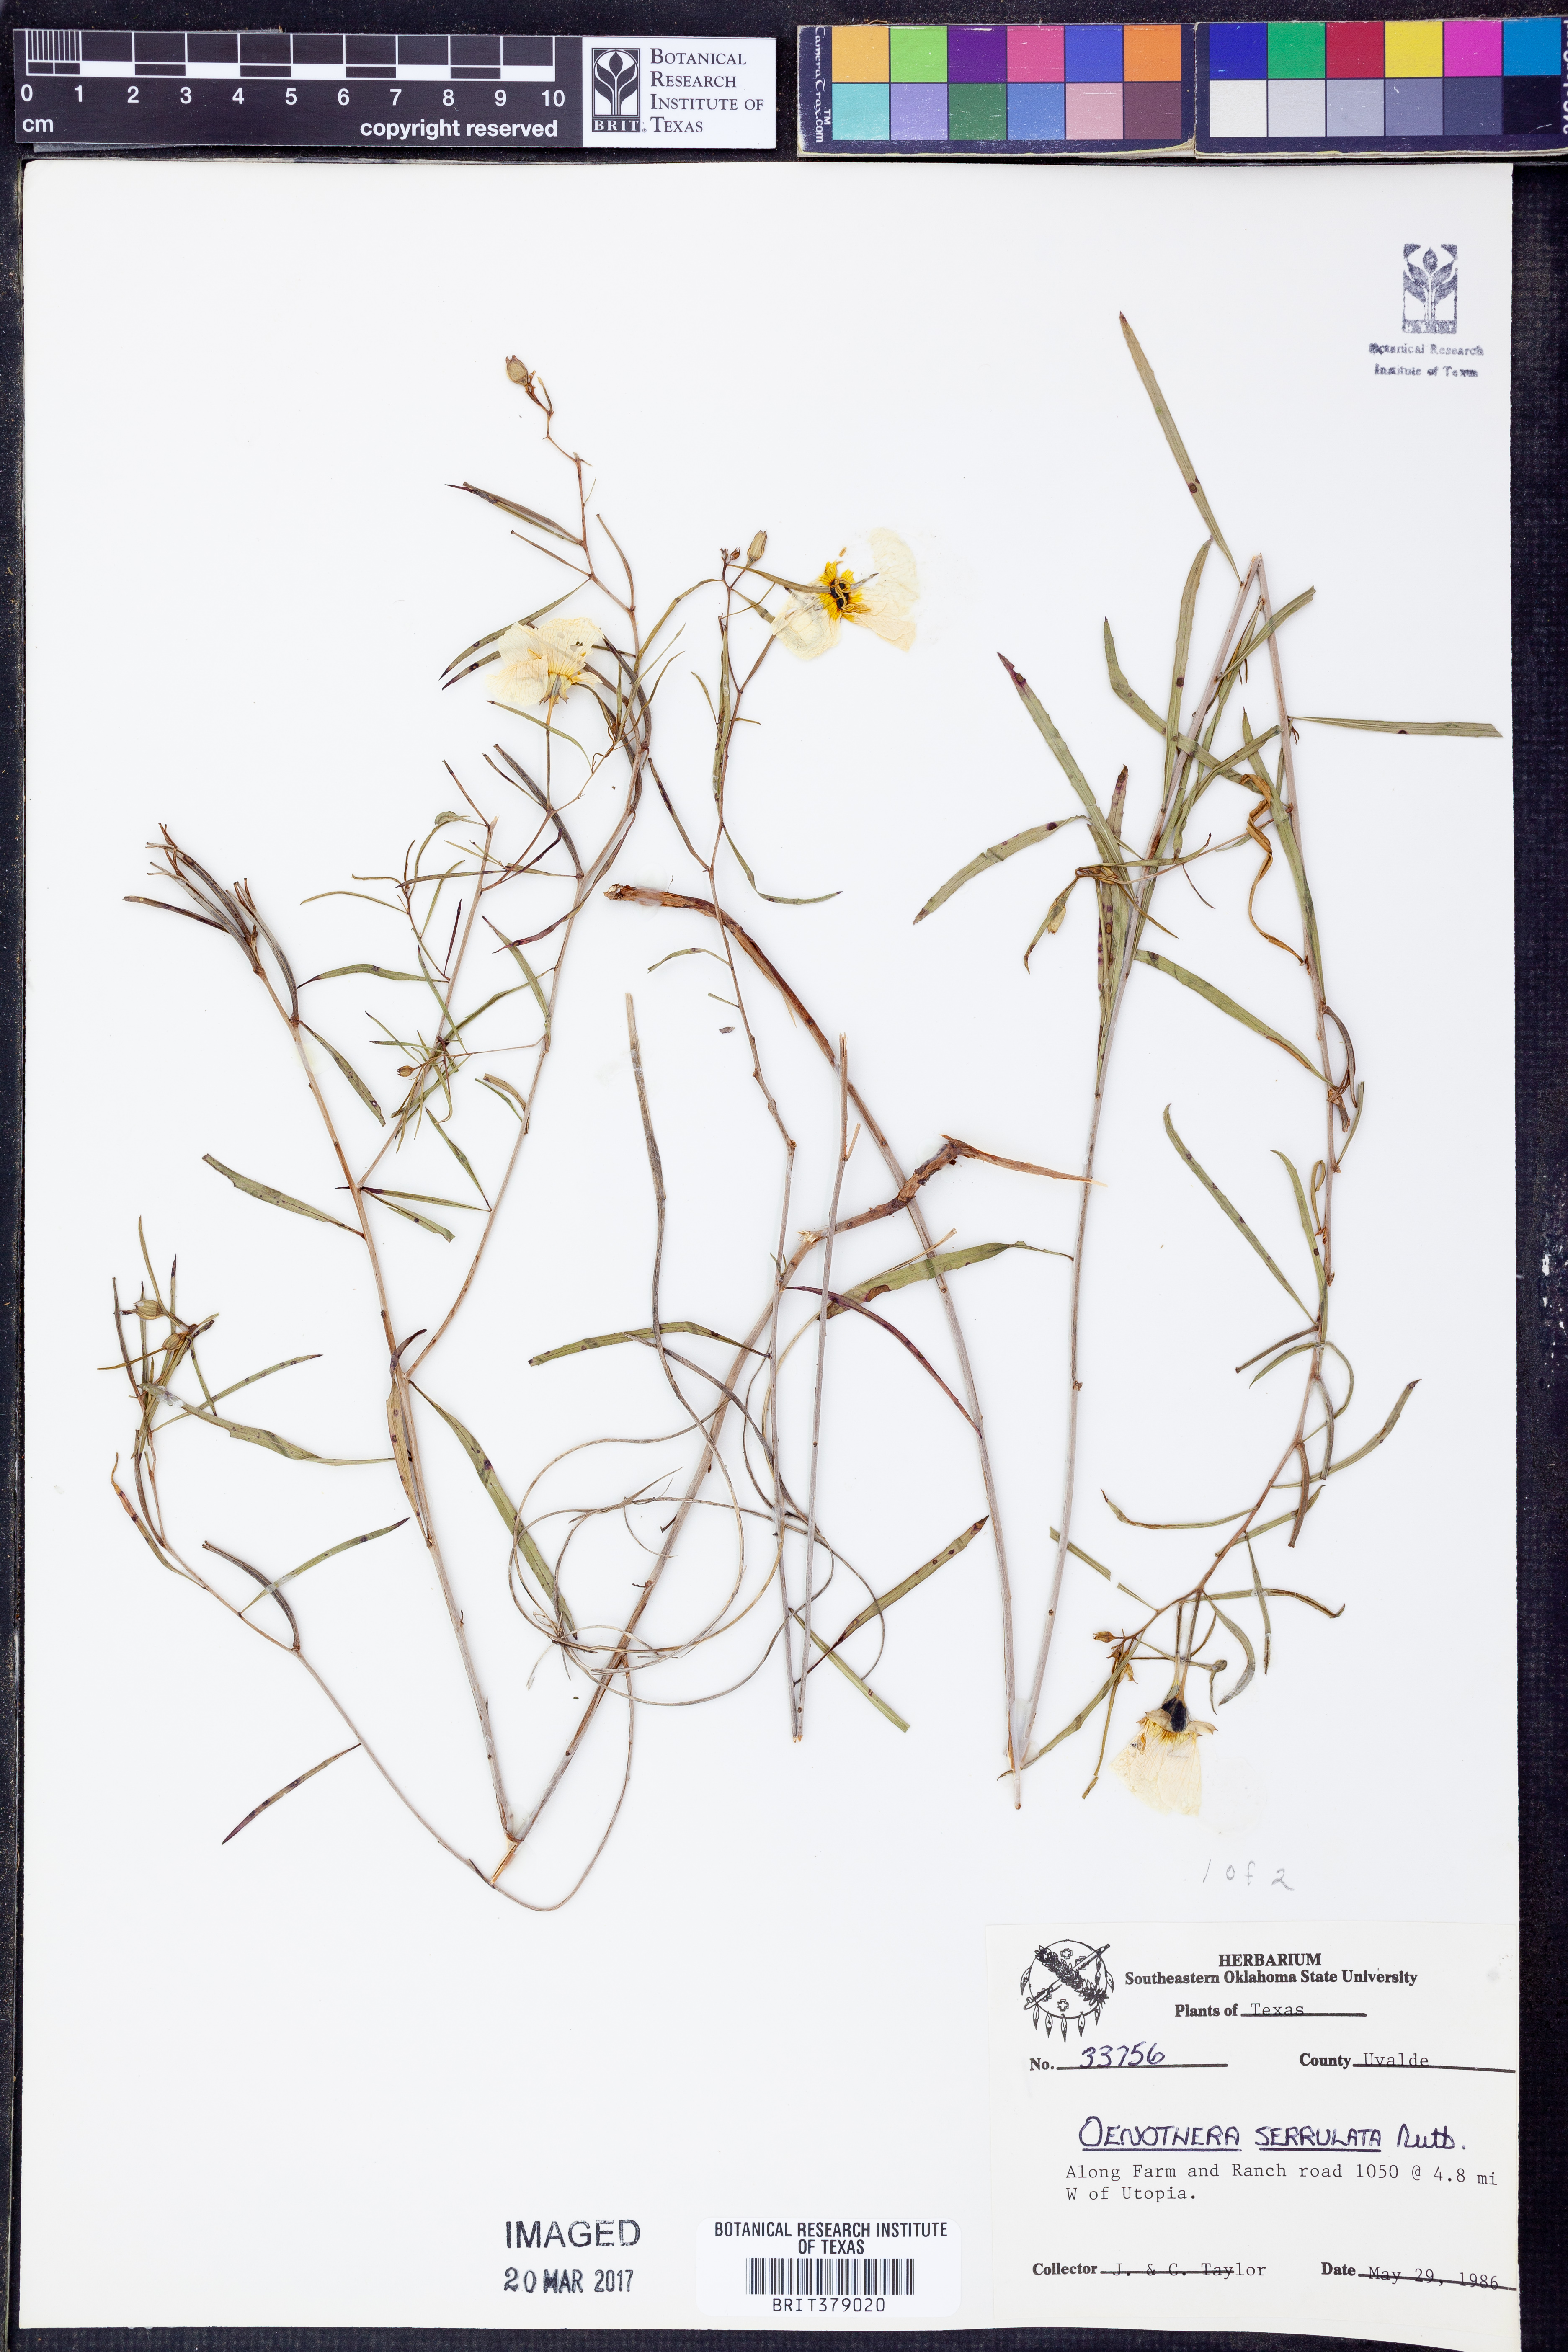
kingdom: Plantae
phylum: Tracheophyta
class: Magnoliopsida
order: Myrtales
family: Onagraceae
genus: Oenothera
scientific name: Oenothera serrulata
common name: Half-shrub calylophus
